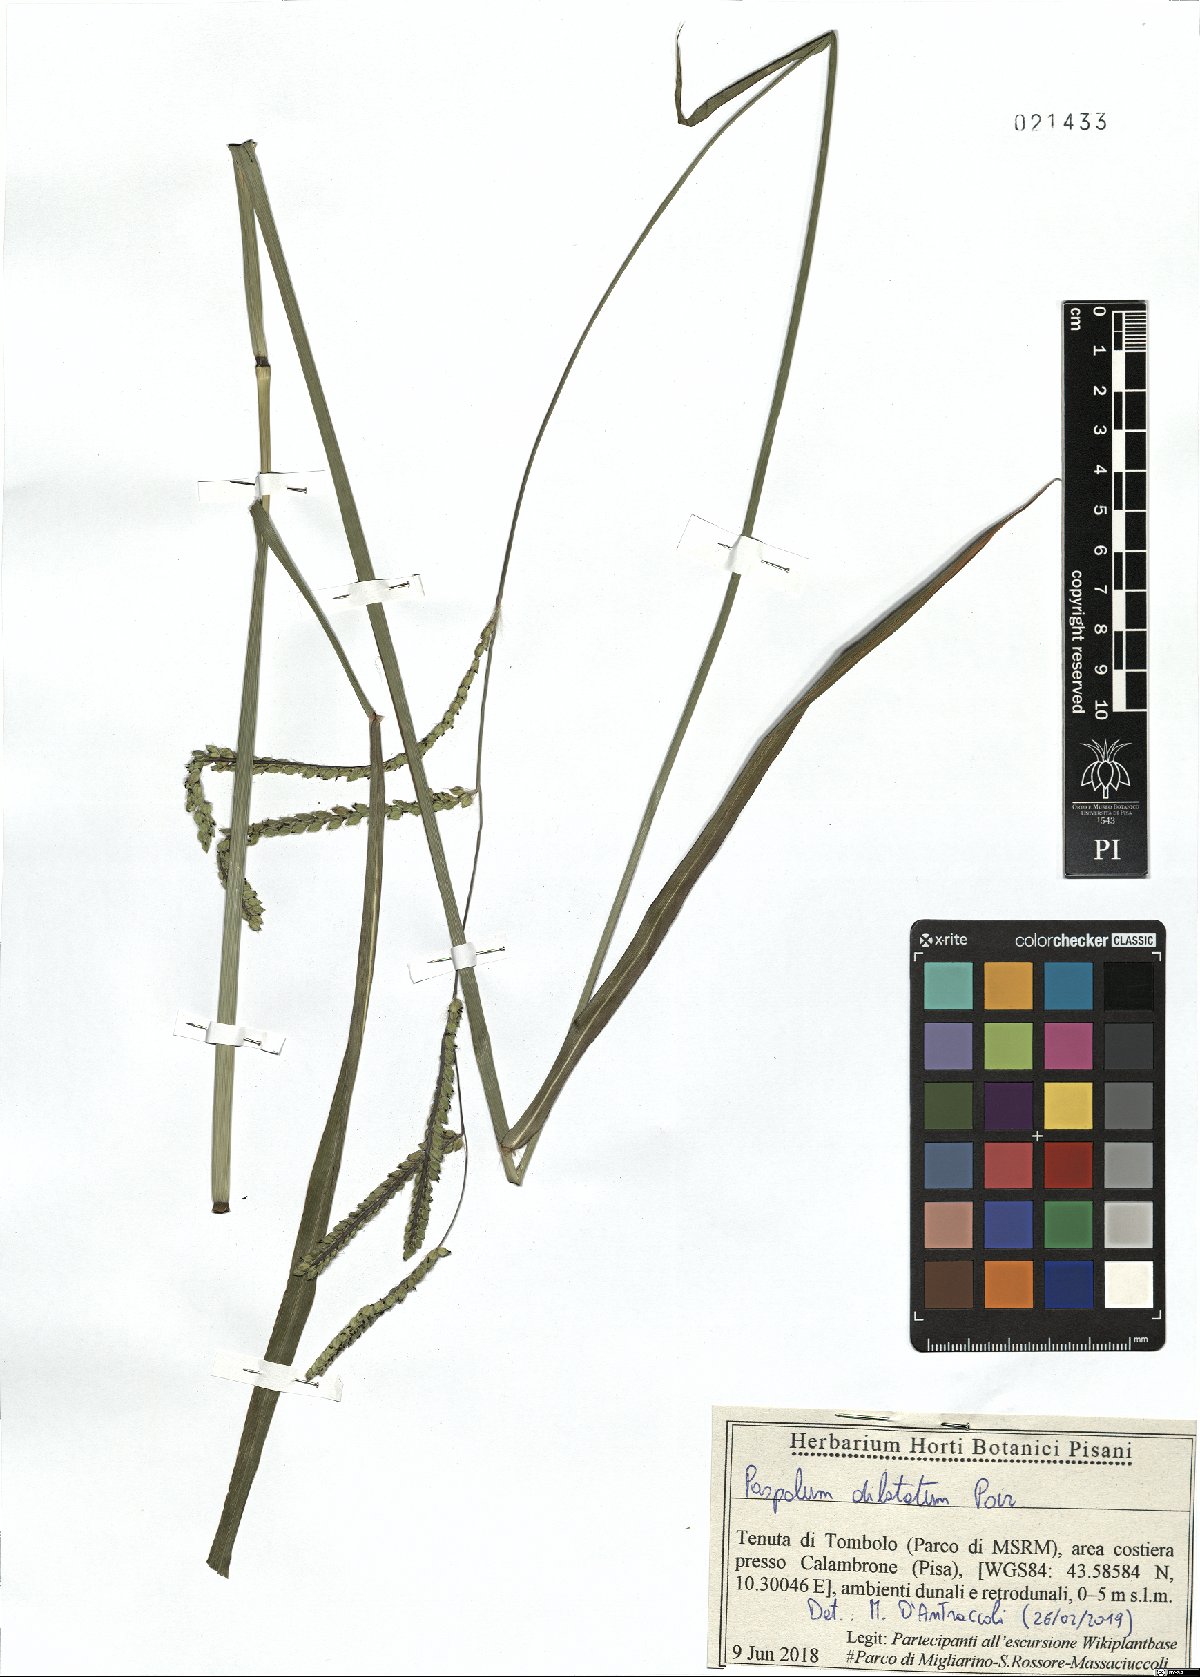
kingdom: Plantae
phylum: Tracheophyta
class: Liliopsida
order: Poales
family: Poaceae
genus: Paspalum
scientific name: Paspalum dilatatum
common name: Dallisgrass
